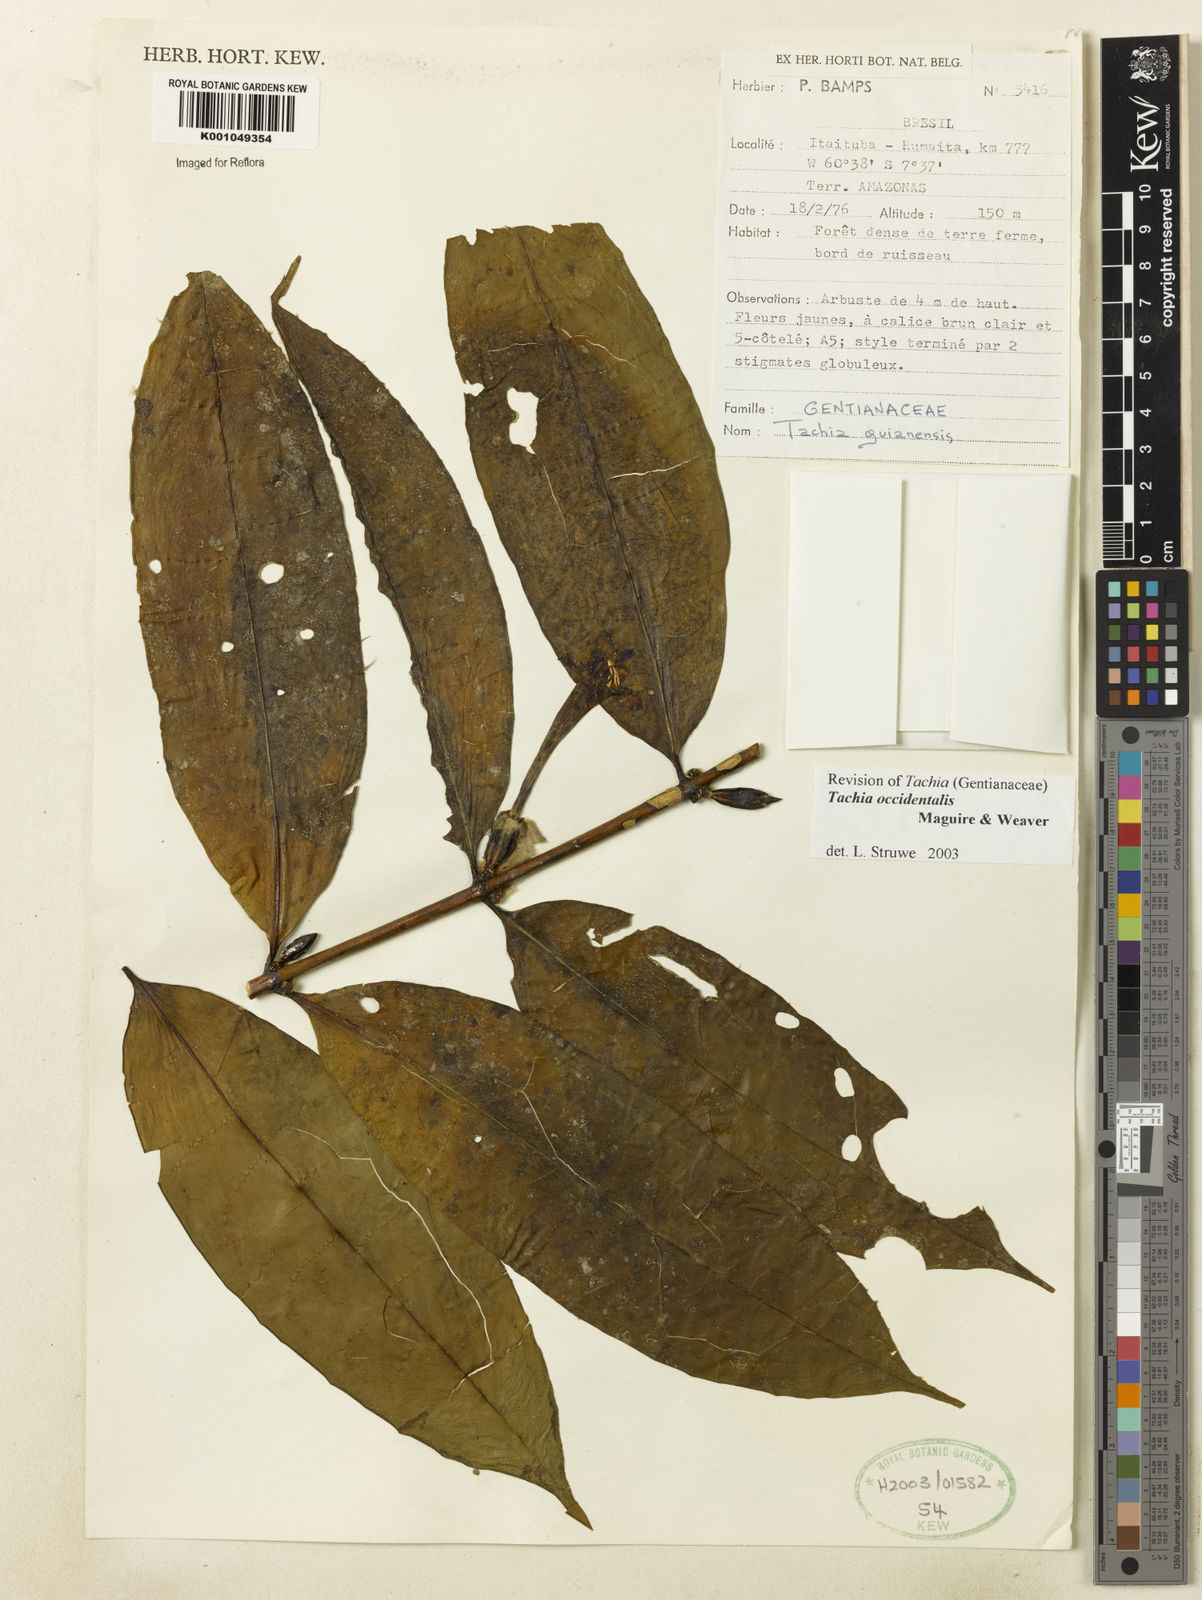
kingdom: Plantae
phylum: Tracheophyta
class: Magnoliopsida
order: Gentianales
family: Gentianaceae
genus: Tachia
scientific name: Tachia orientalis
